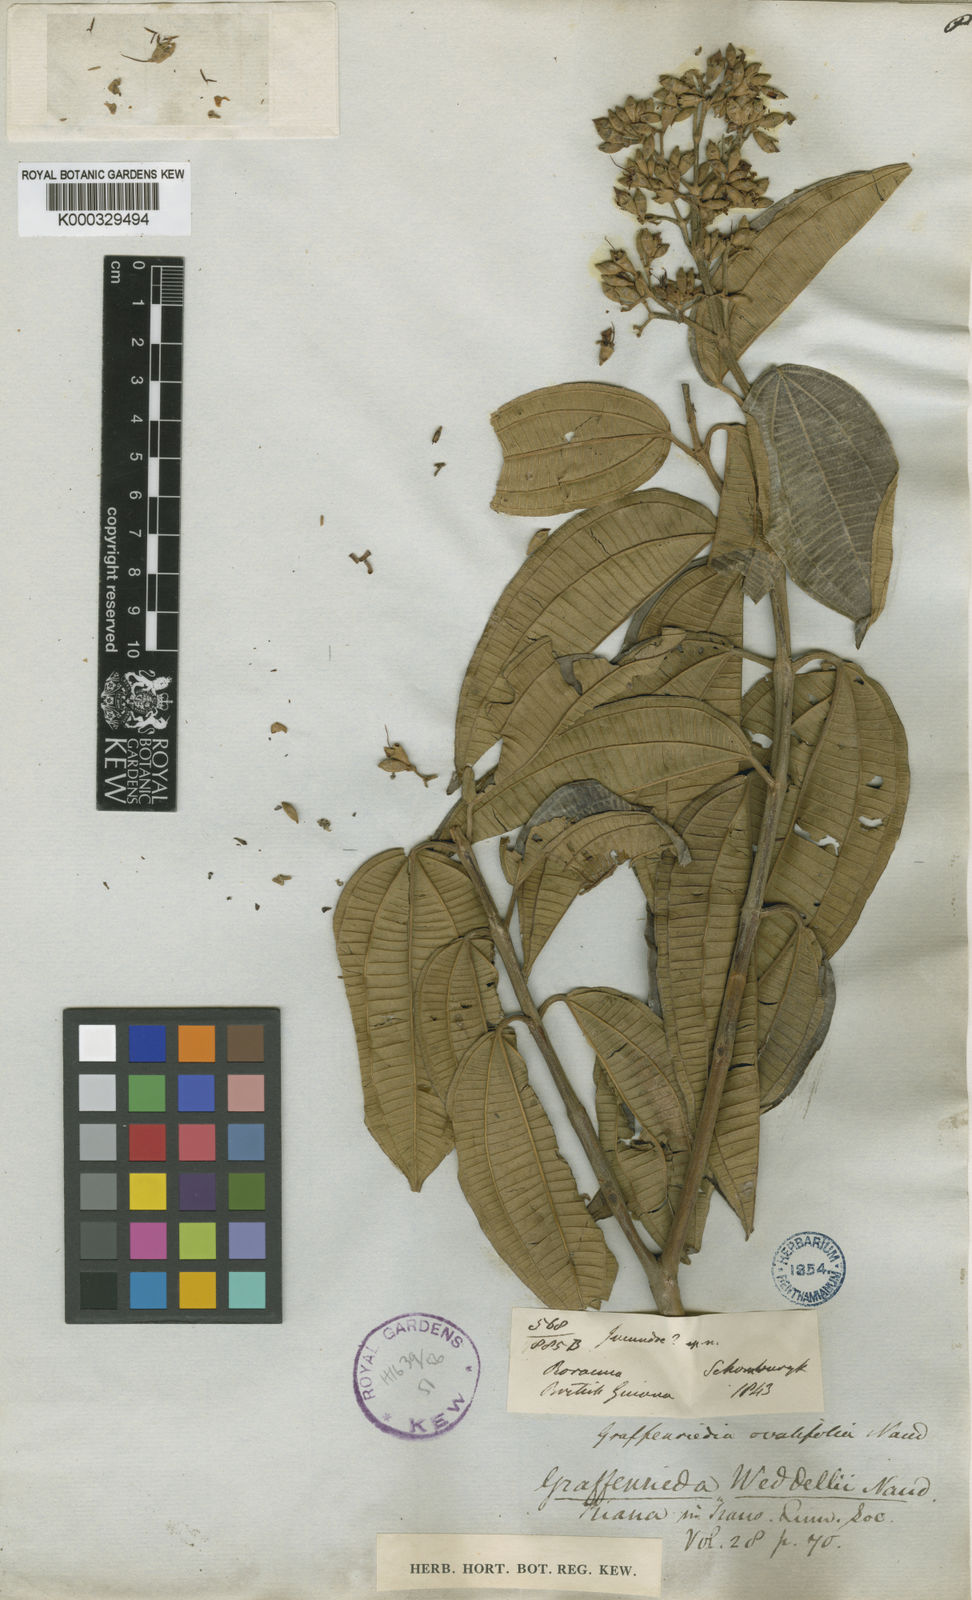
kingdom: Plantae
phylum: Tracheophyta
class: Magnoliopsida
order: Myrtales
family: Melastomataceae
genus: Graffenrieda
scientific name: Graffenrieda weddellii
